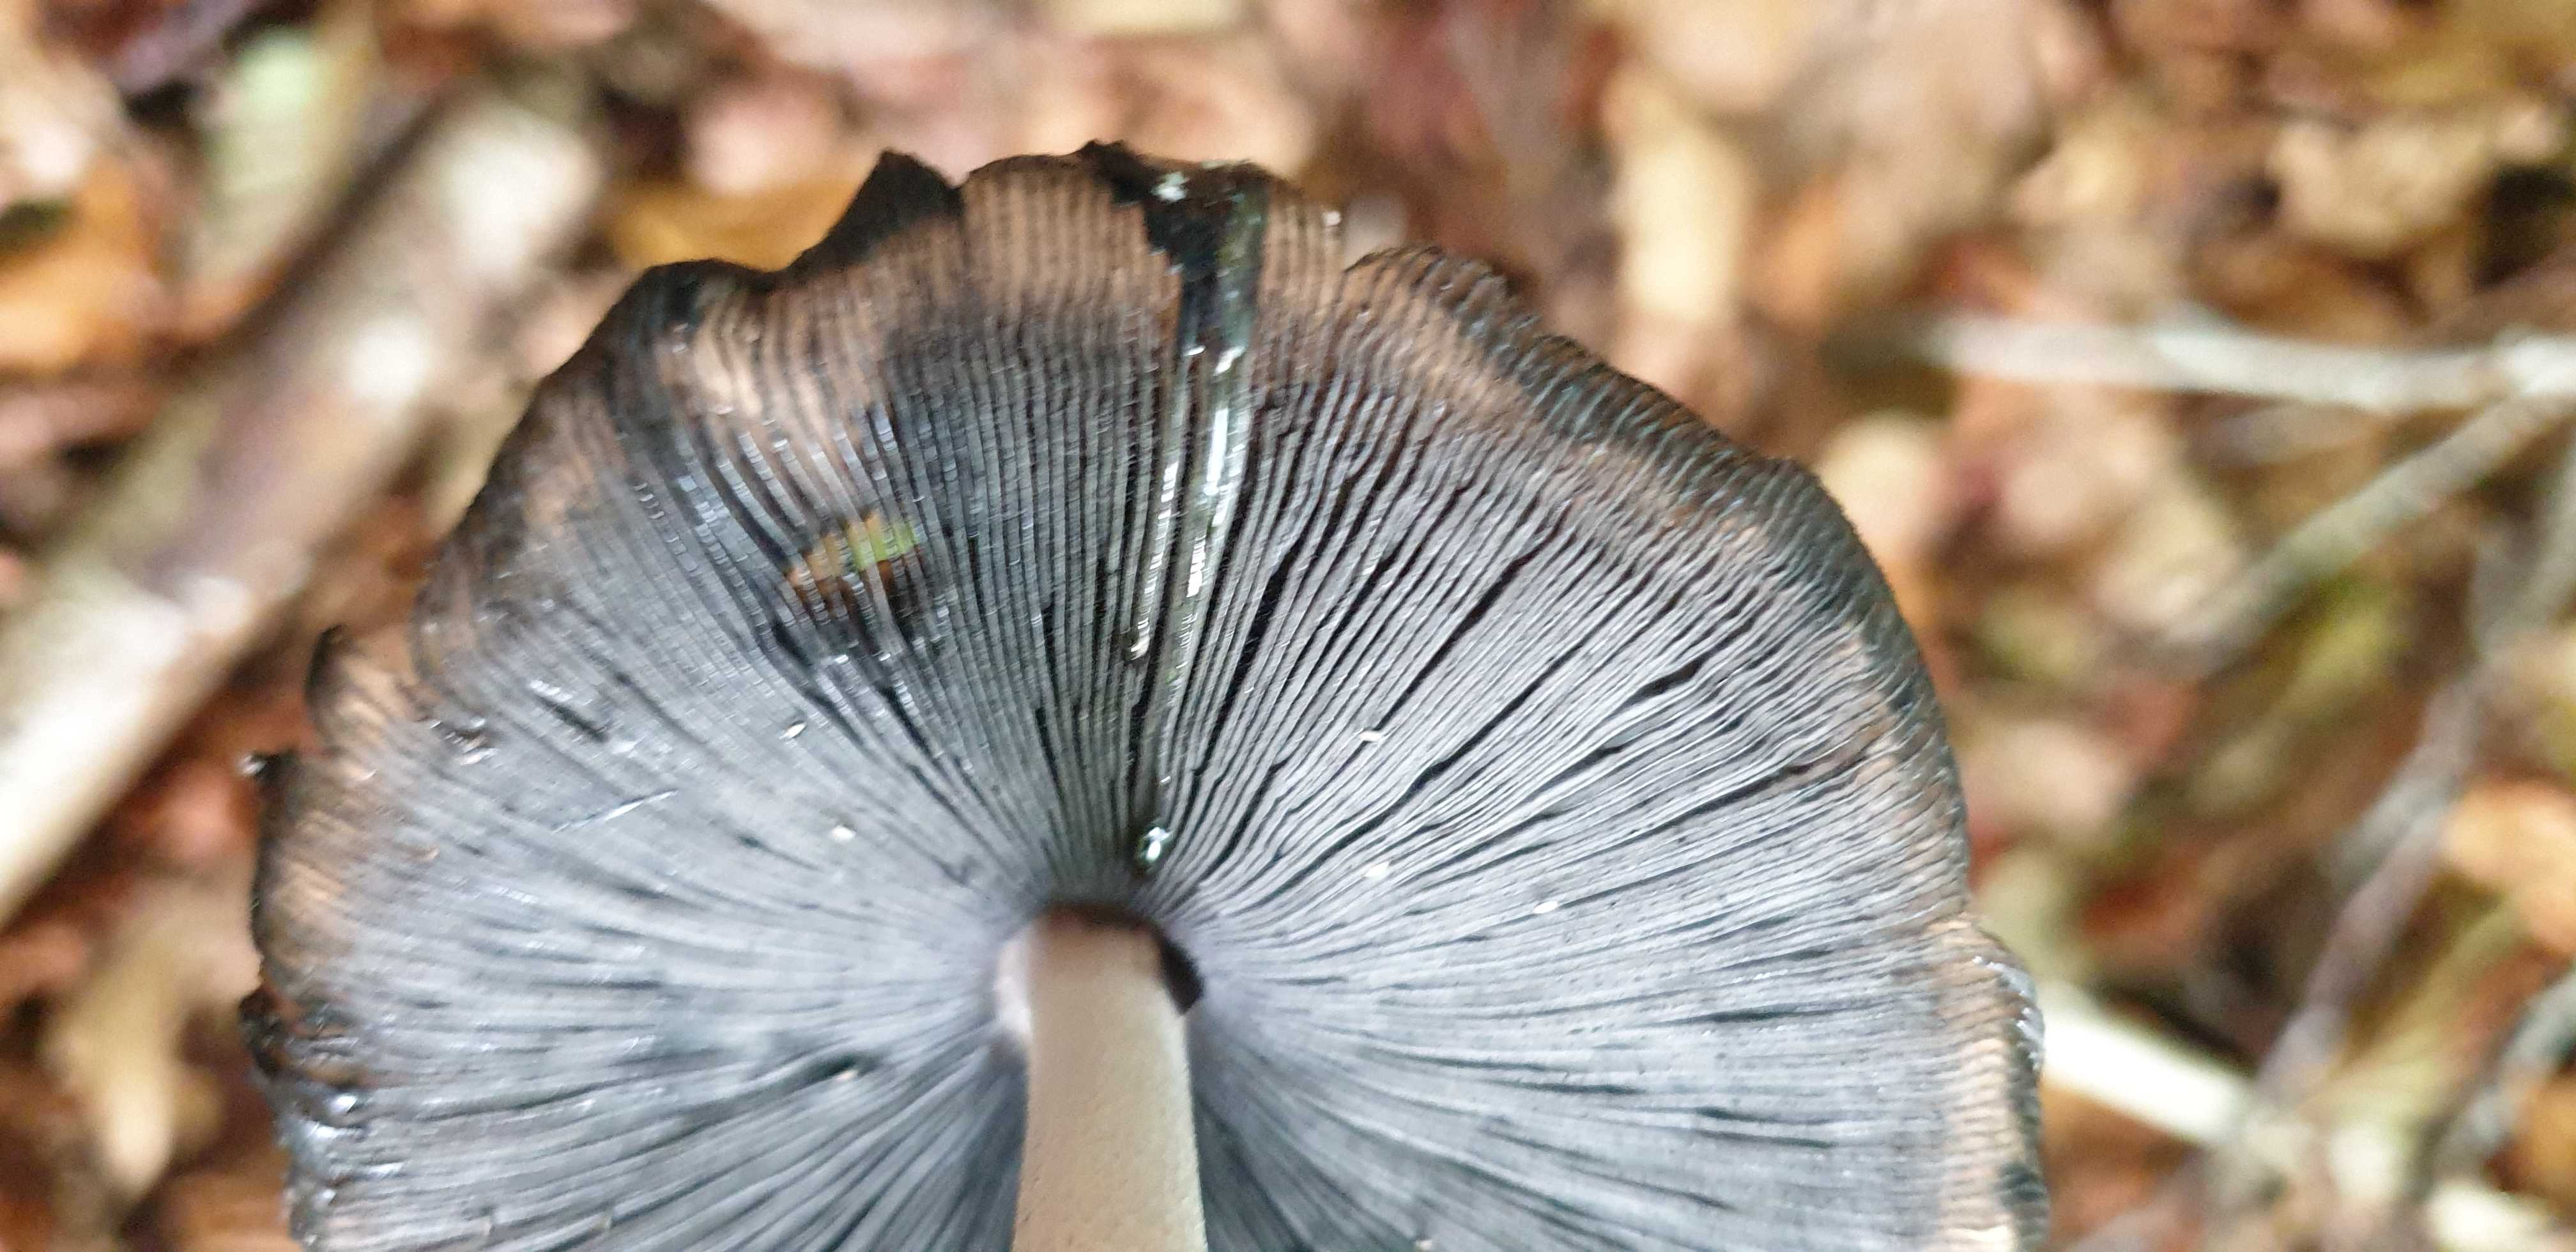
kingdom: Fungi
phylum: Basidiomycota
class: Agaricomycetes
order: Agaricales
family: Psathyrellaceae
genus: Coprinopsis
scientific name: Coprinopsis picacea
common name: skade-blækhat
